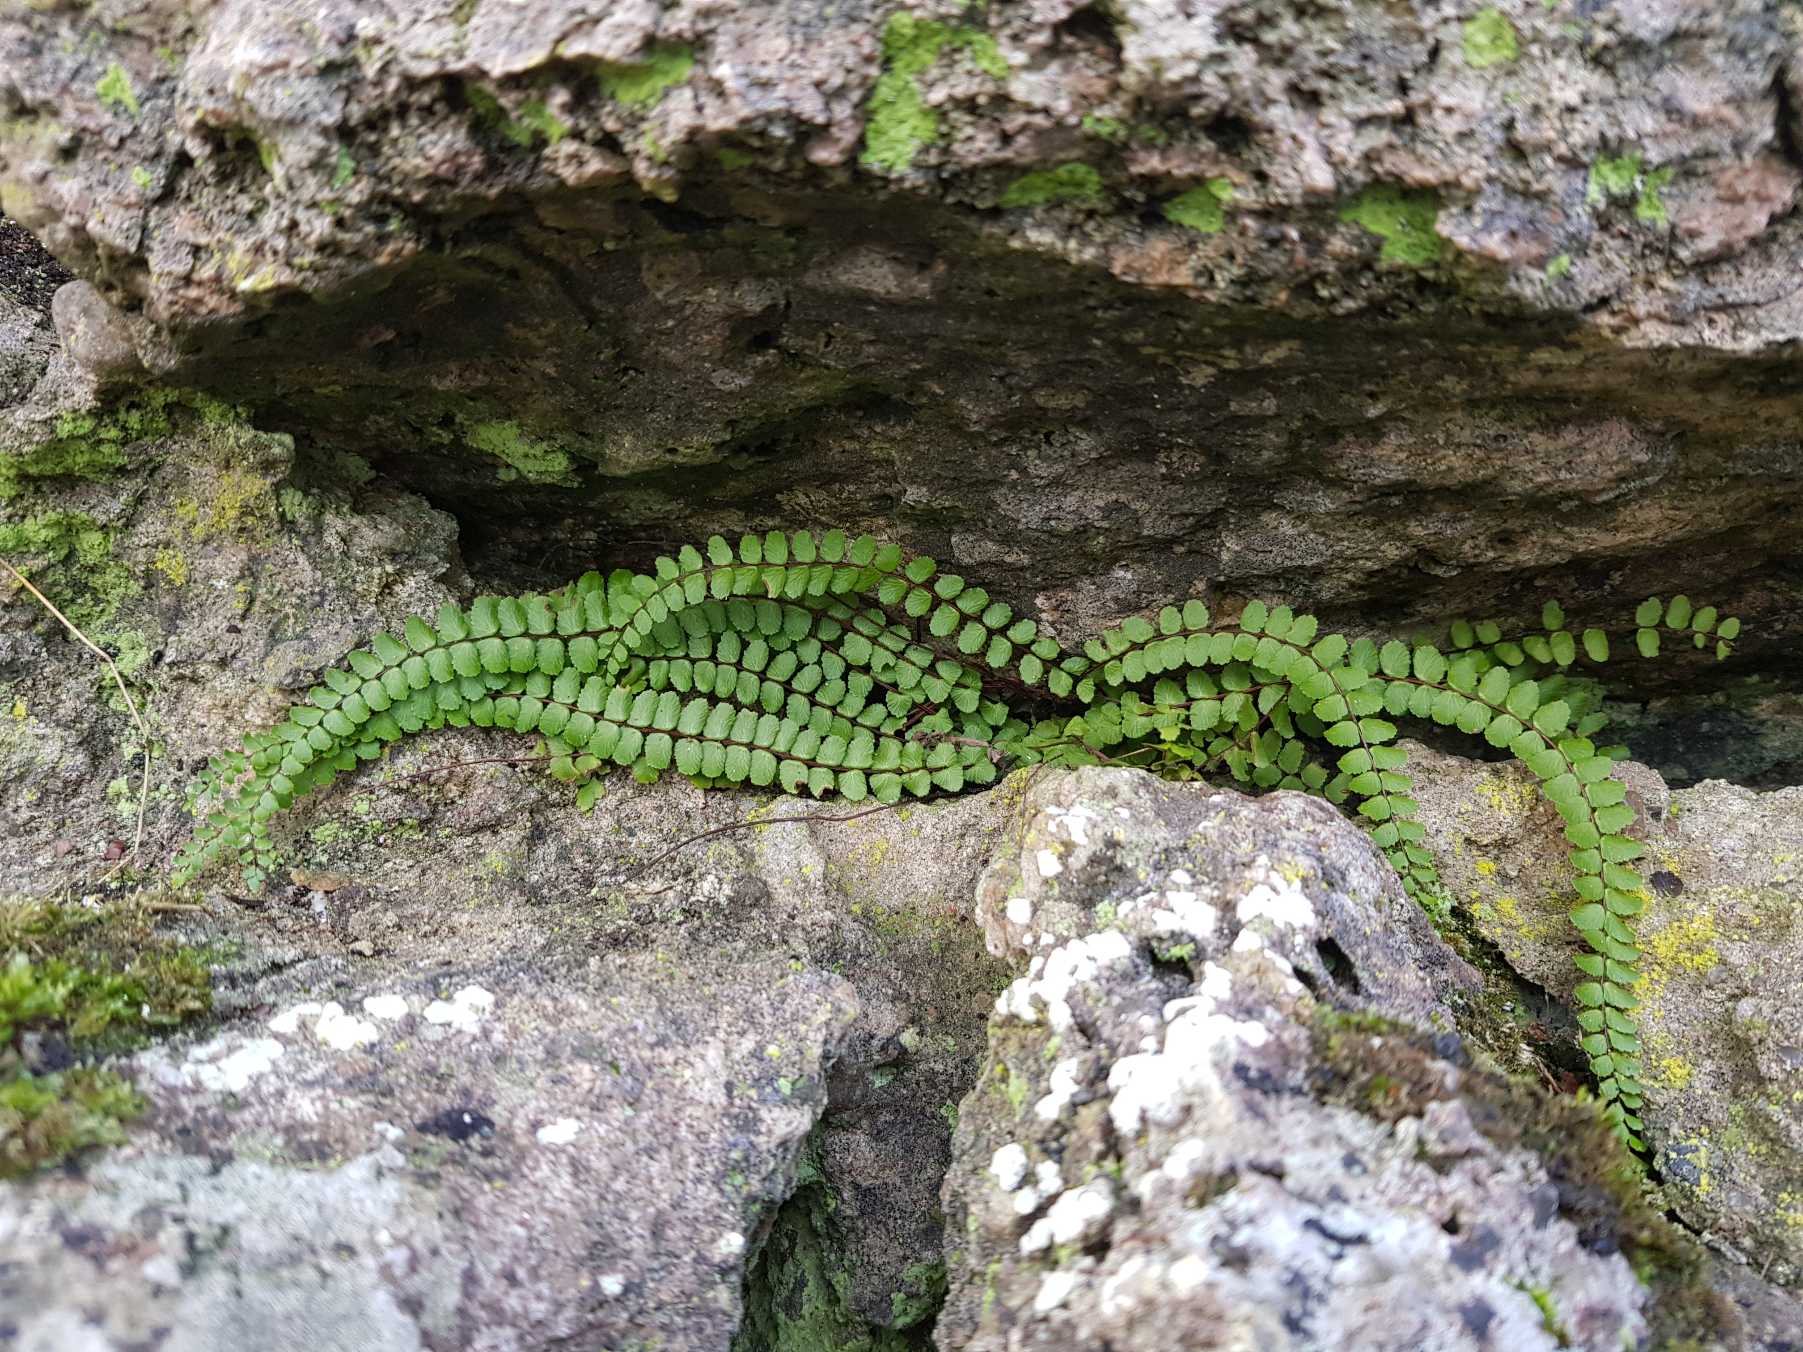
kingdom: Plantae
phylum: Tracheophyta
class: Polypodiopsida
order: Polypodiales
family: Aspleniaceae
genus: Asplenium
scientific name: Asplenium quadrivalens
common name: Kalk-radeløv
